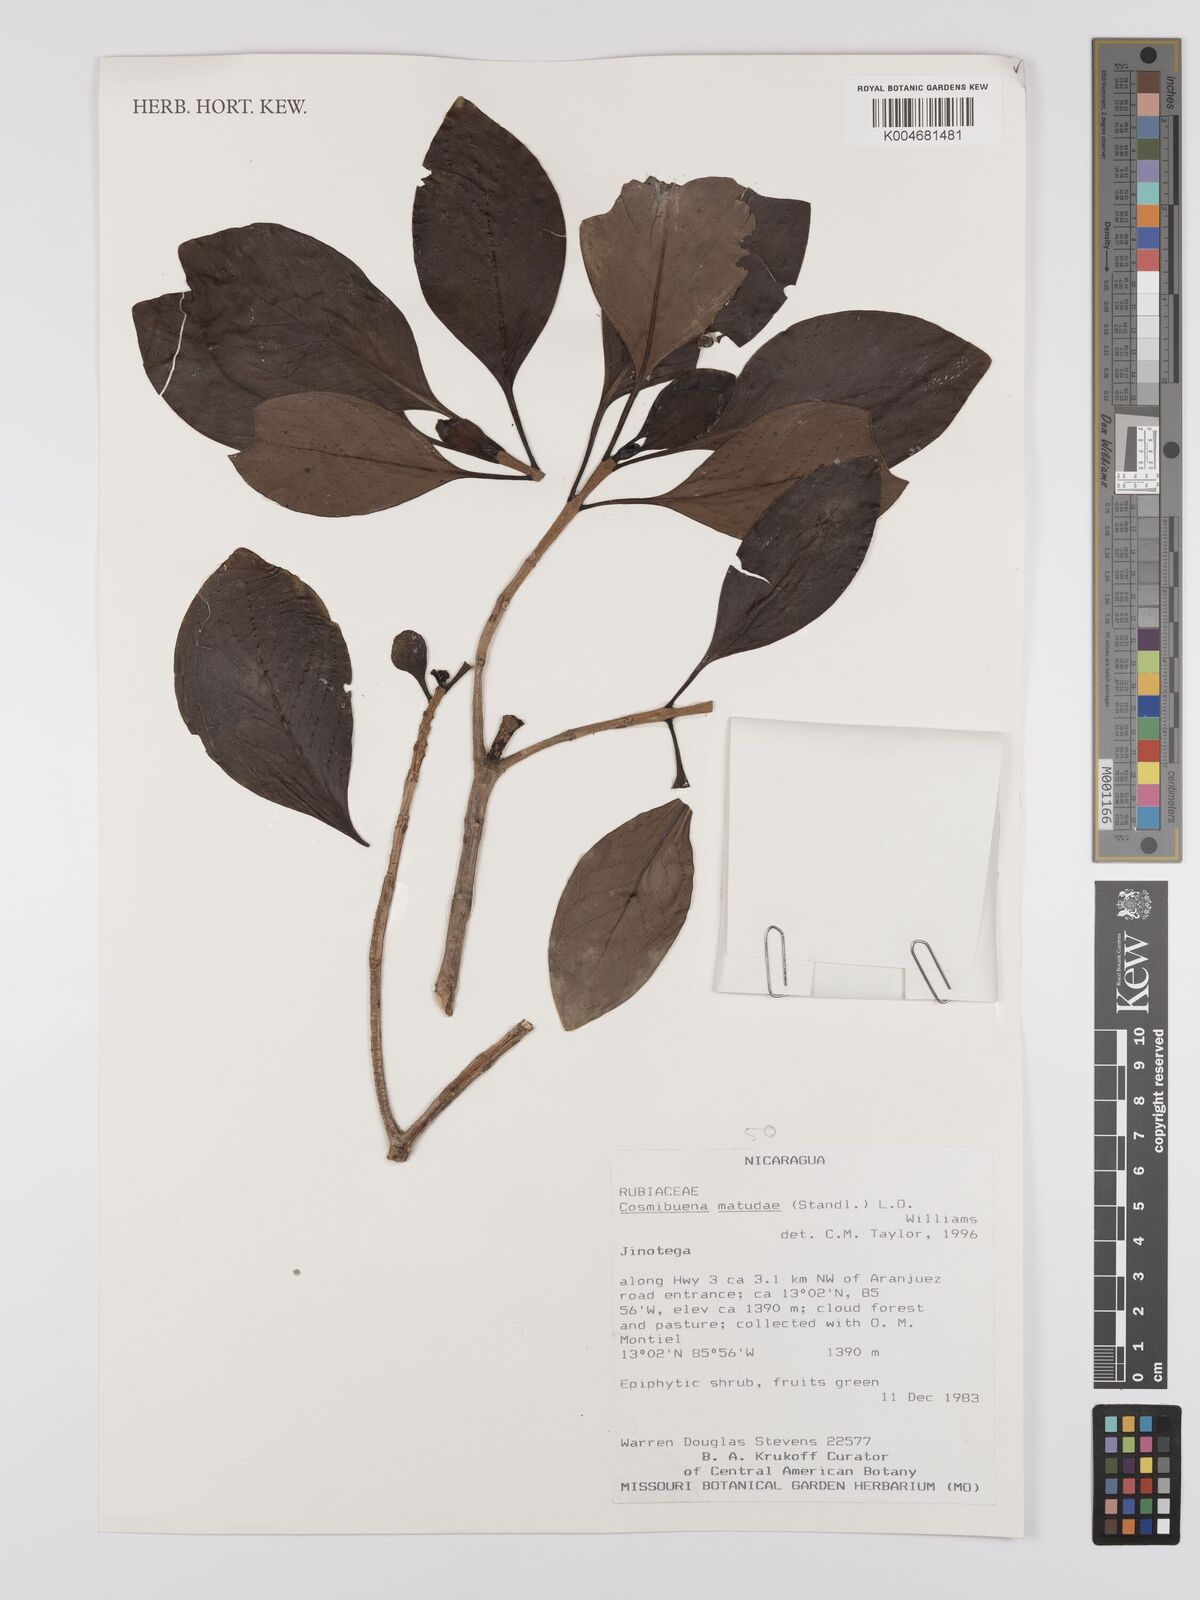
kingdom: Plantae
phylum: Tracheophyta
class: Magnoliopsida
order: Gentianales
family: Rubiaceae
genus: Cosmibuena
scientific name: Cosmibuena matudae
